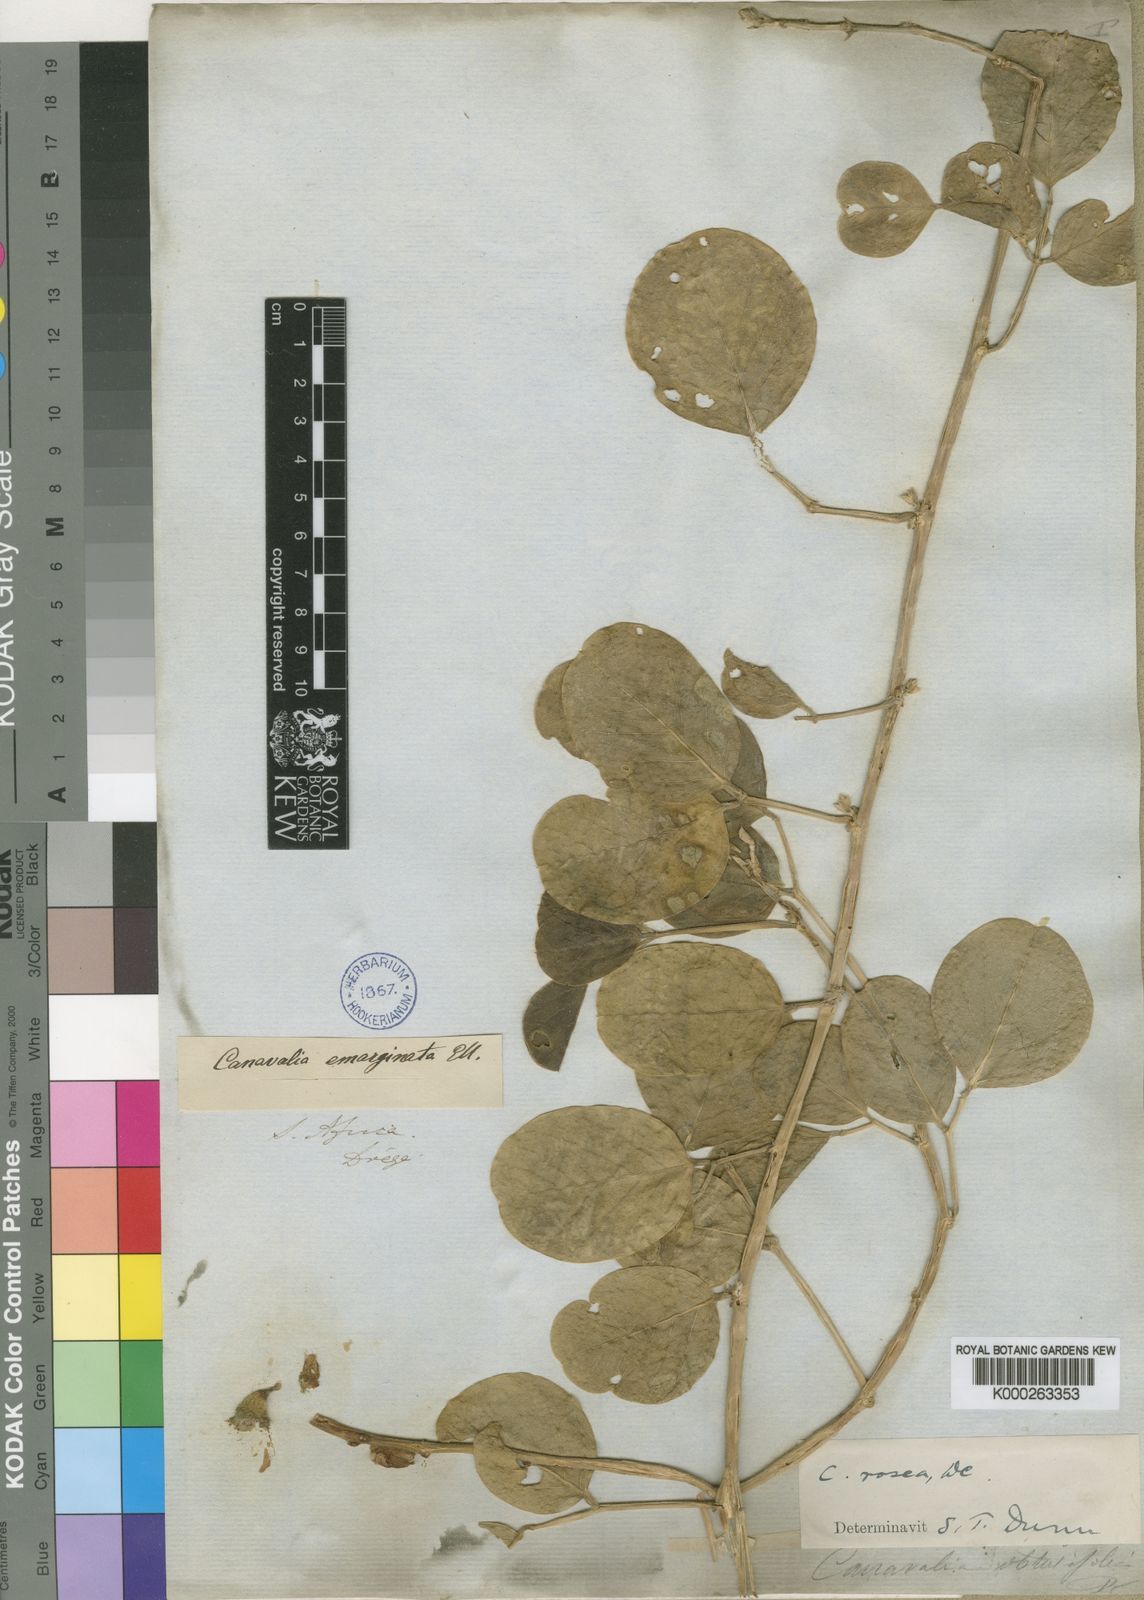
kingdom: Plantae
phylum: Tracheophyta
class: Magnoliopsida
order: Fabales
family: Fabaceae
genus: Canavalia
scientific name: Canavalia rosea
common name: Beach-bean
